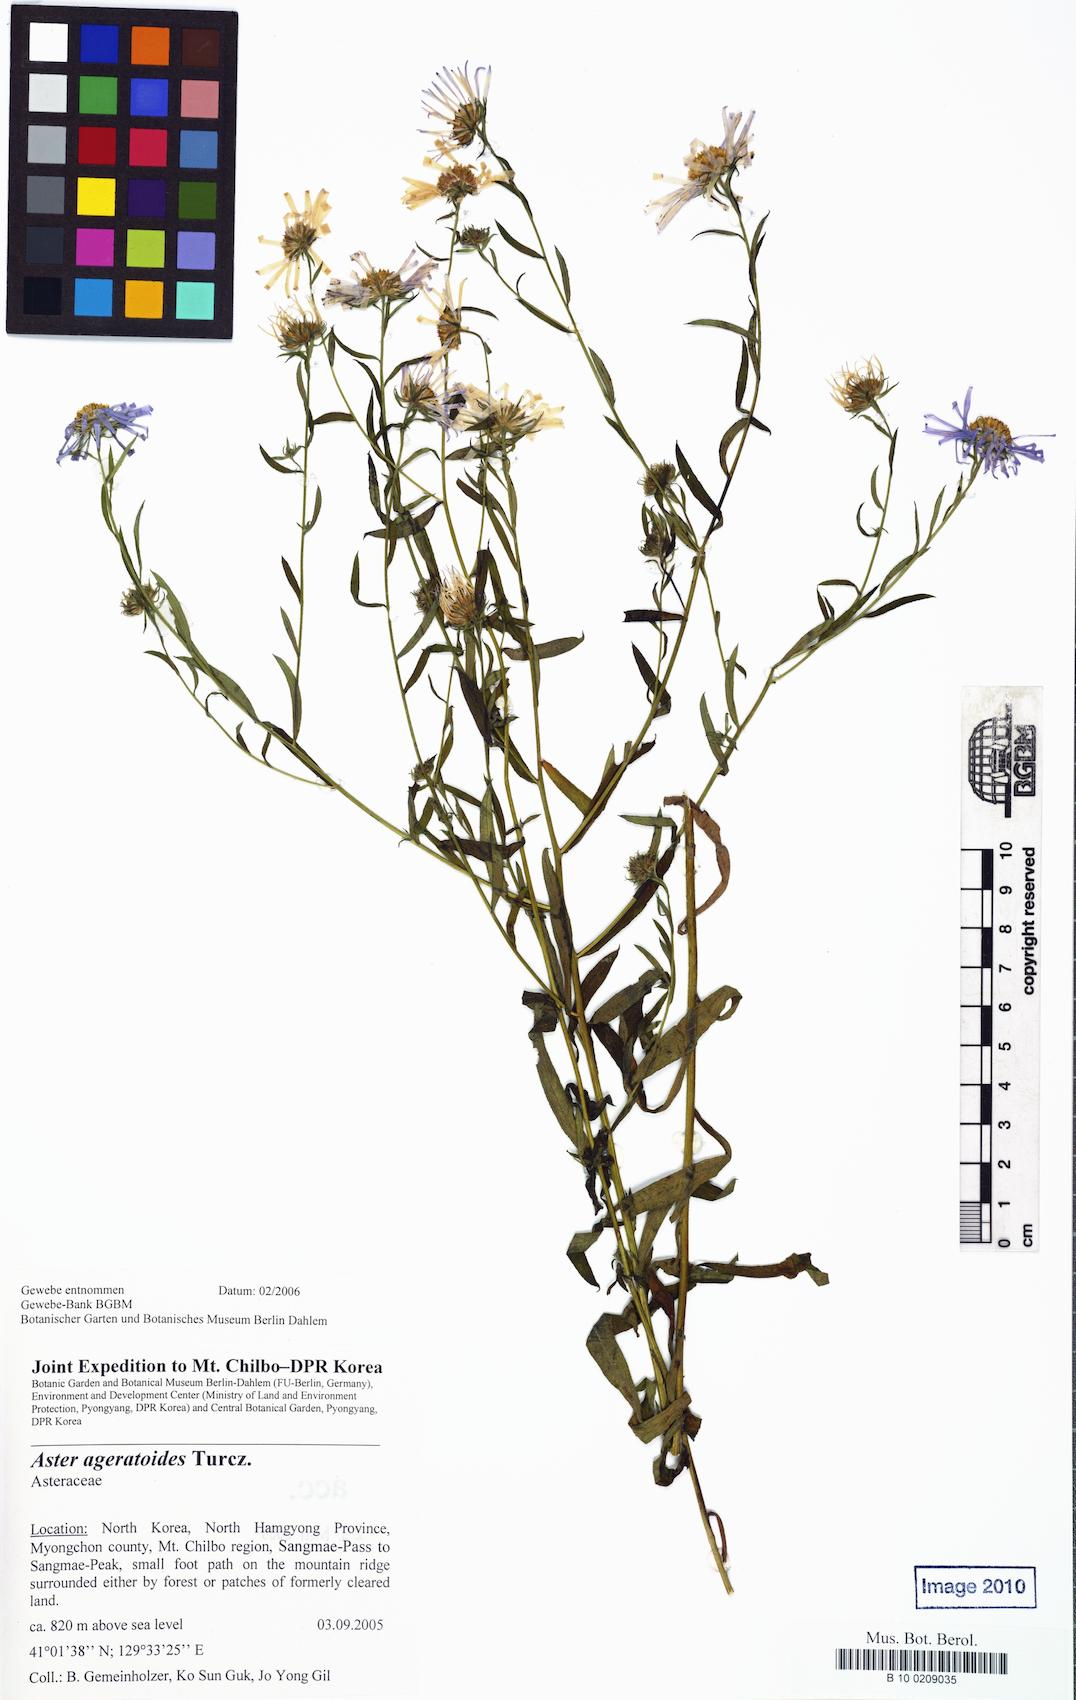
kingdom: Plantae
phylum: Tracheophyta
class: Magnoliopsida
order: Asterales
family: Asteraceae
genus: Aster
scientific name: Aster ageratoides
